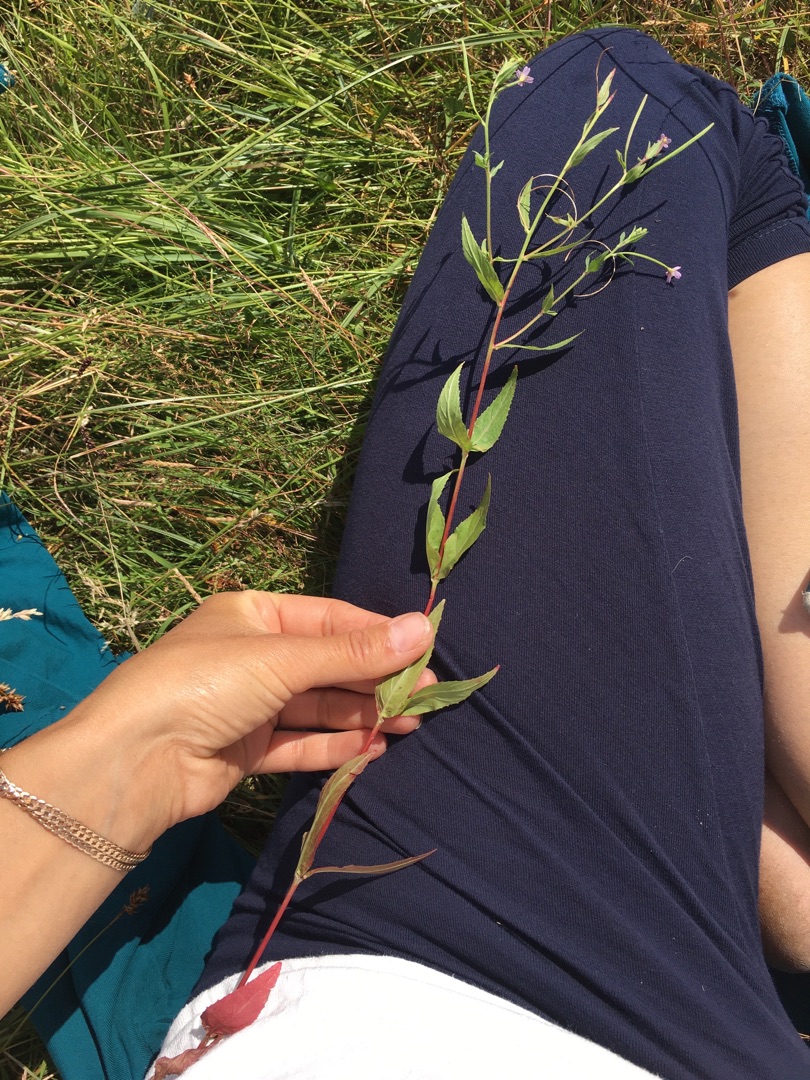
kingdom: Plantae
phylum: Tracheophyta
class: Magnoliopsida
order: Myrtales
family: Onagraceae
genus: Epilobium
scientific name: Epilobium ciliatum
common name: Kirtlet dueurt
